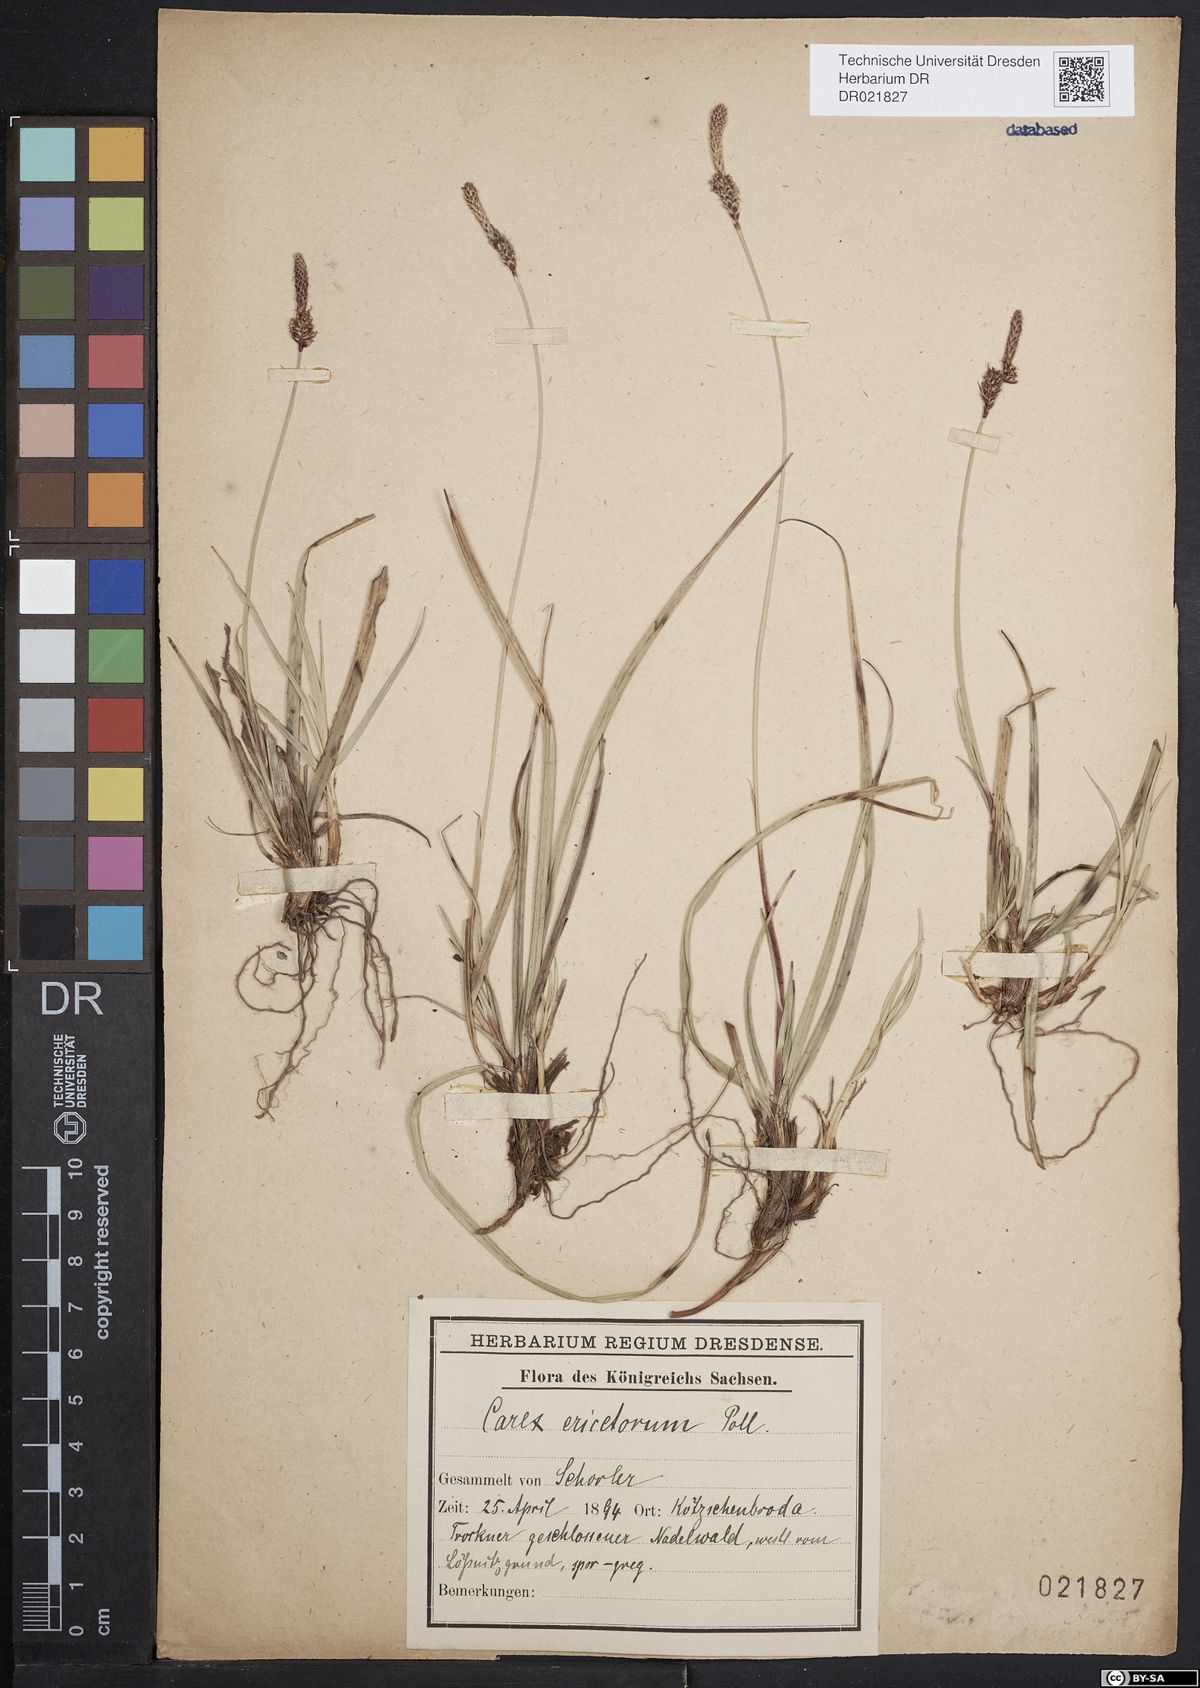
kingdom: Plantae
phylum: Tracheophyta
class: Liliopsida
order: Poales
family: Cyperaceae
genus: Carex
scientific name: Carex ericetorum
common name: Rare spring-sedge
